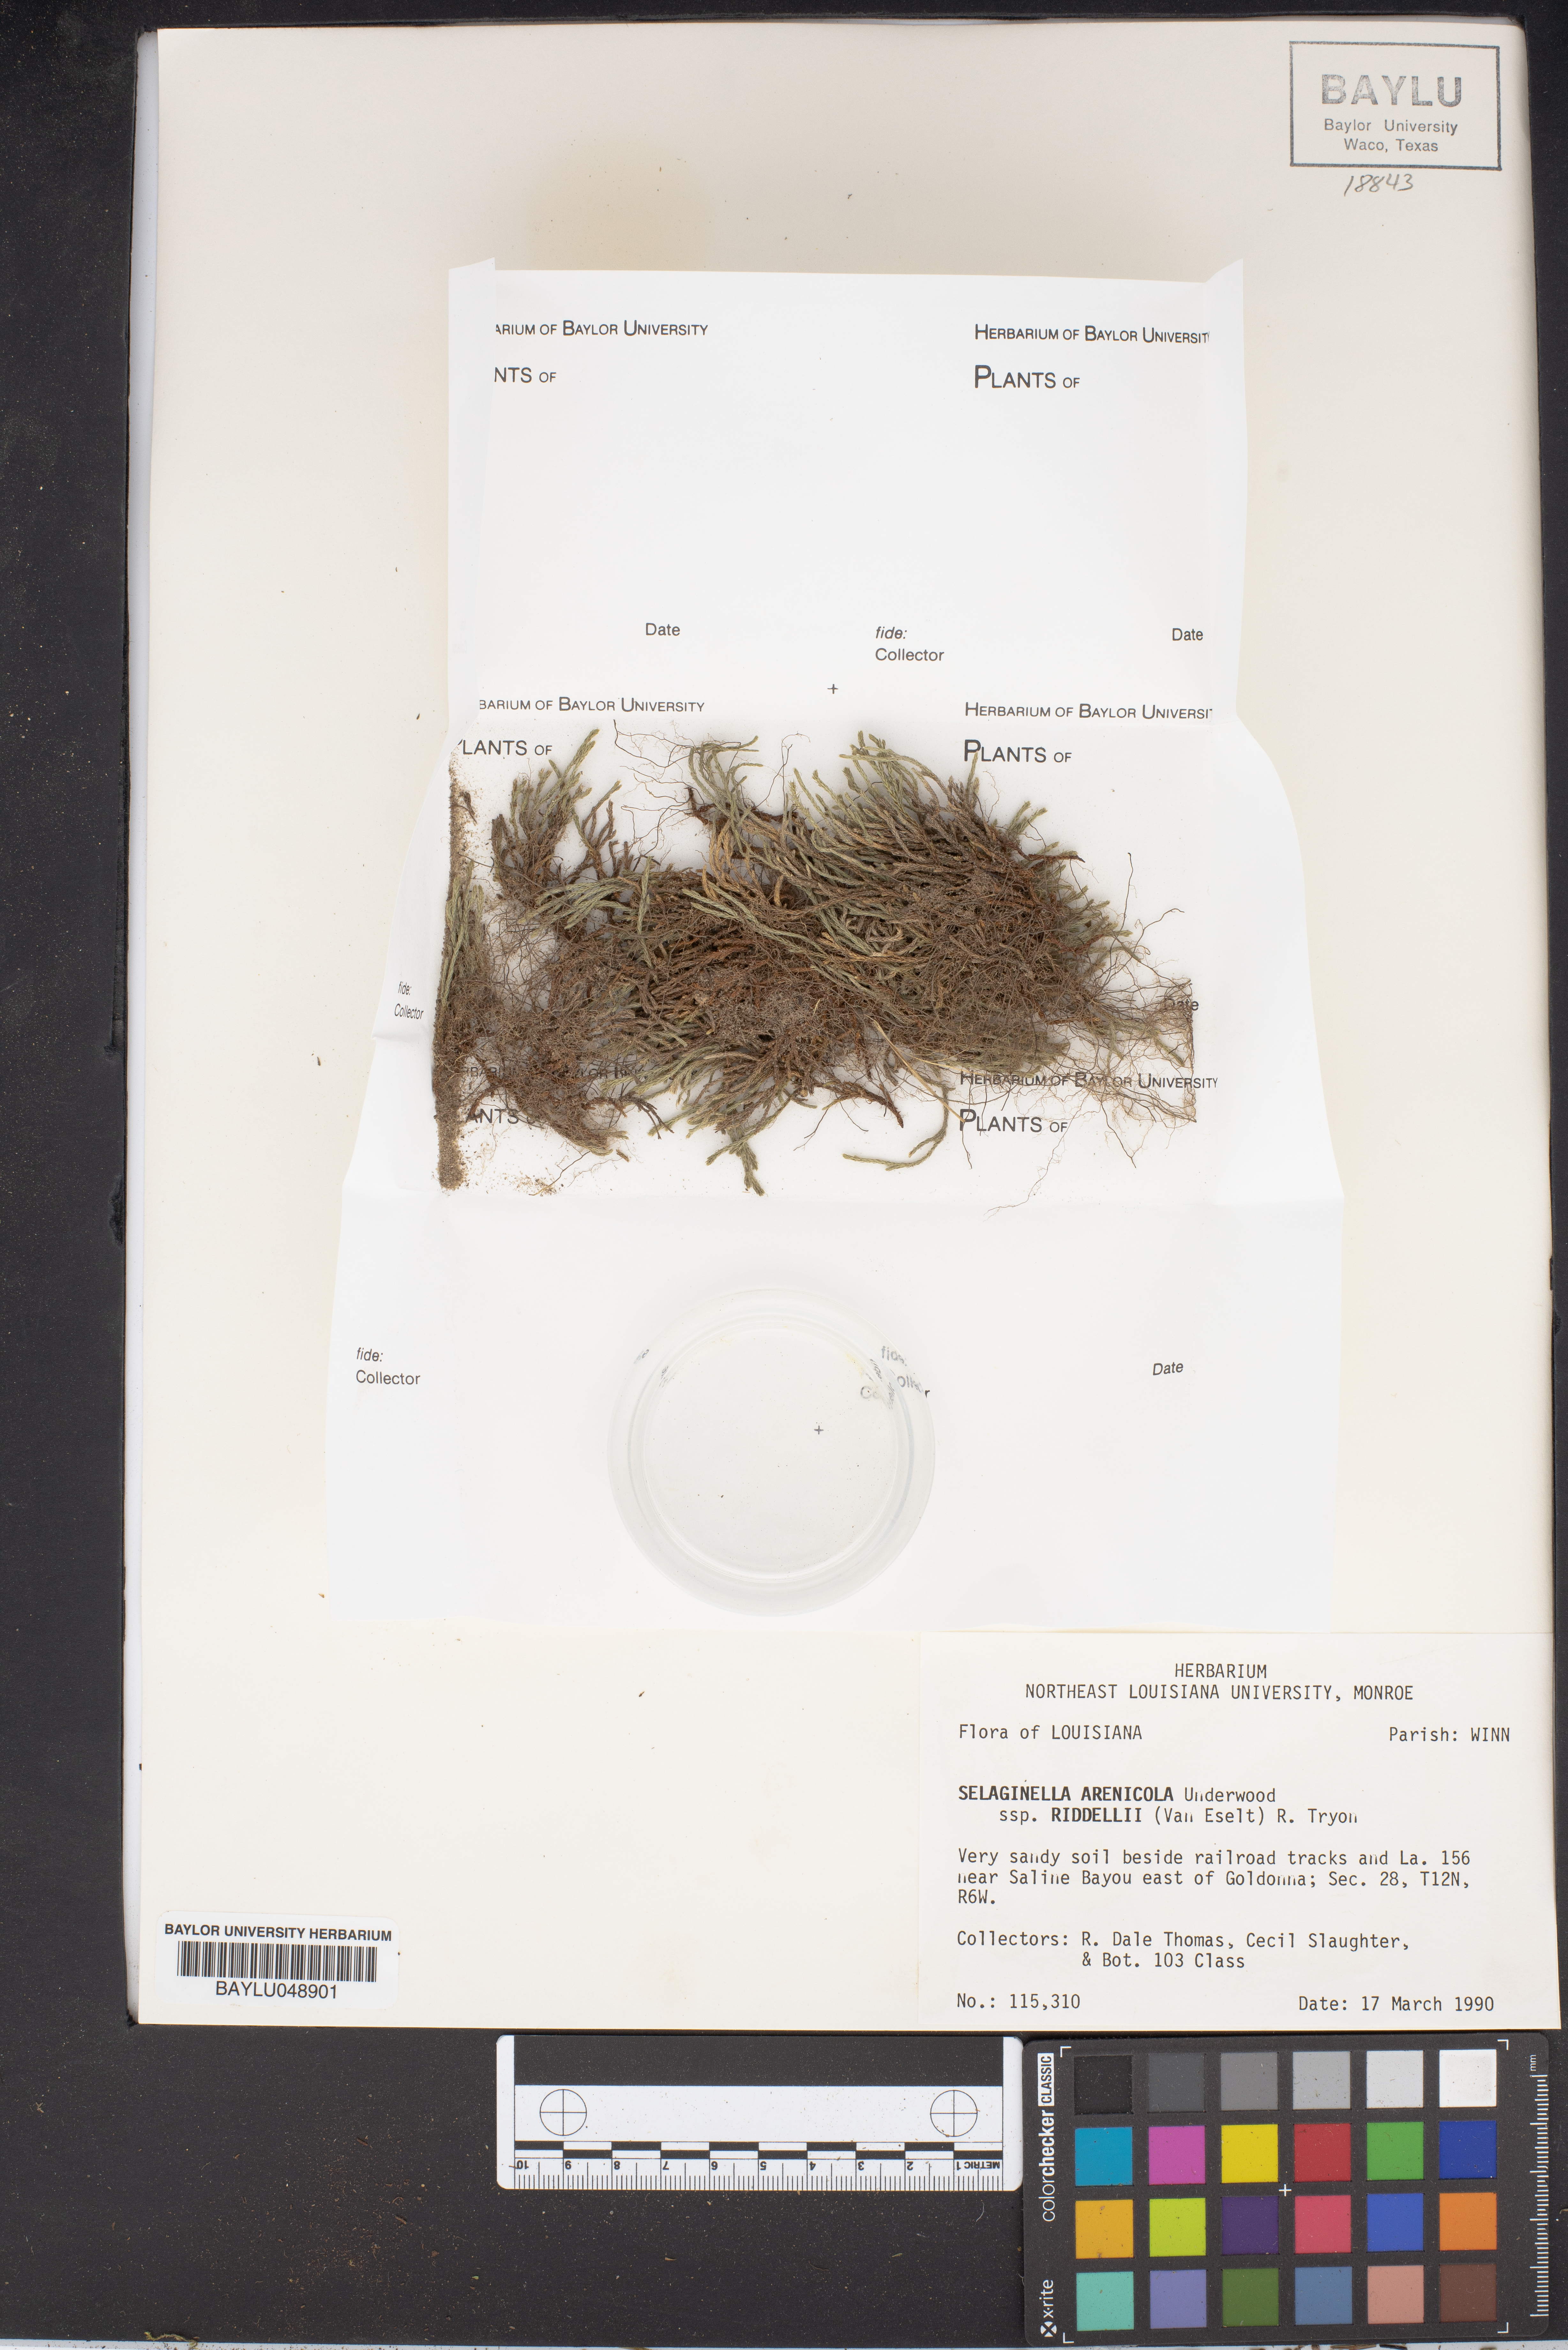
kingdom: Plantae
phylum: Tracheophyta
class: Lycopodiopsida
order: Selaginellales
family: Selaginellaceae
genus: Selaginella
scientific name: Selaginella arenicola
